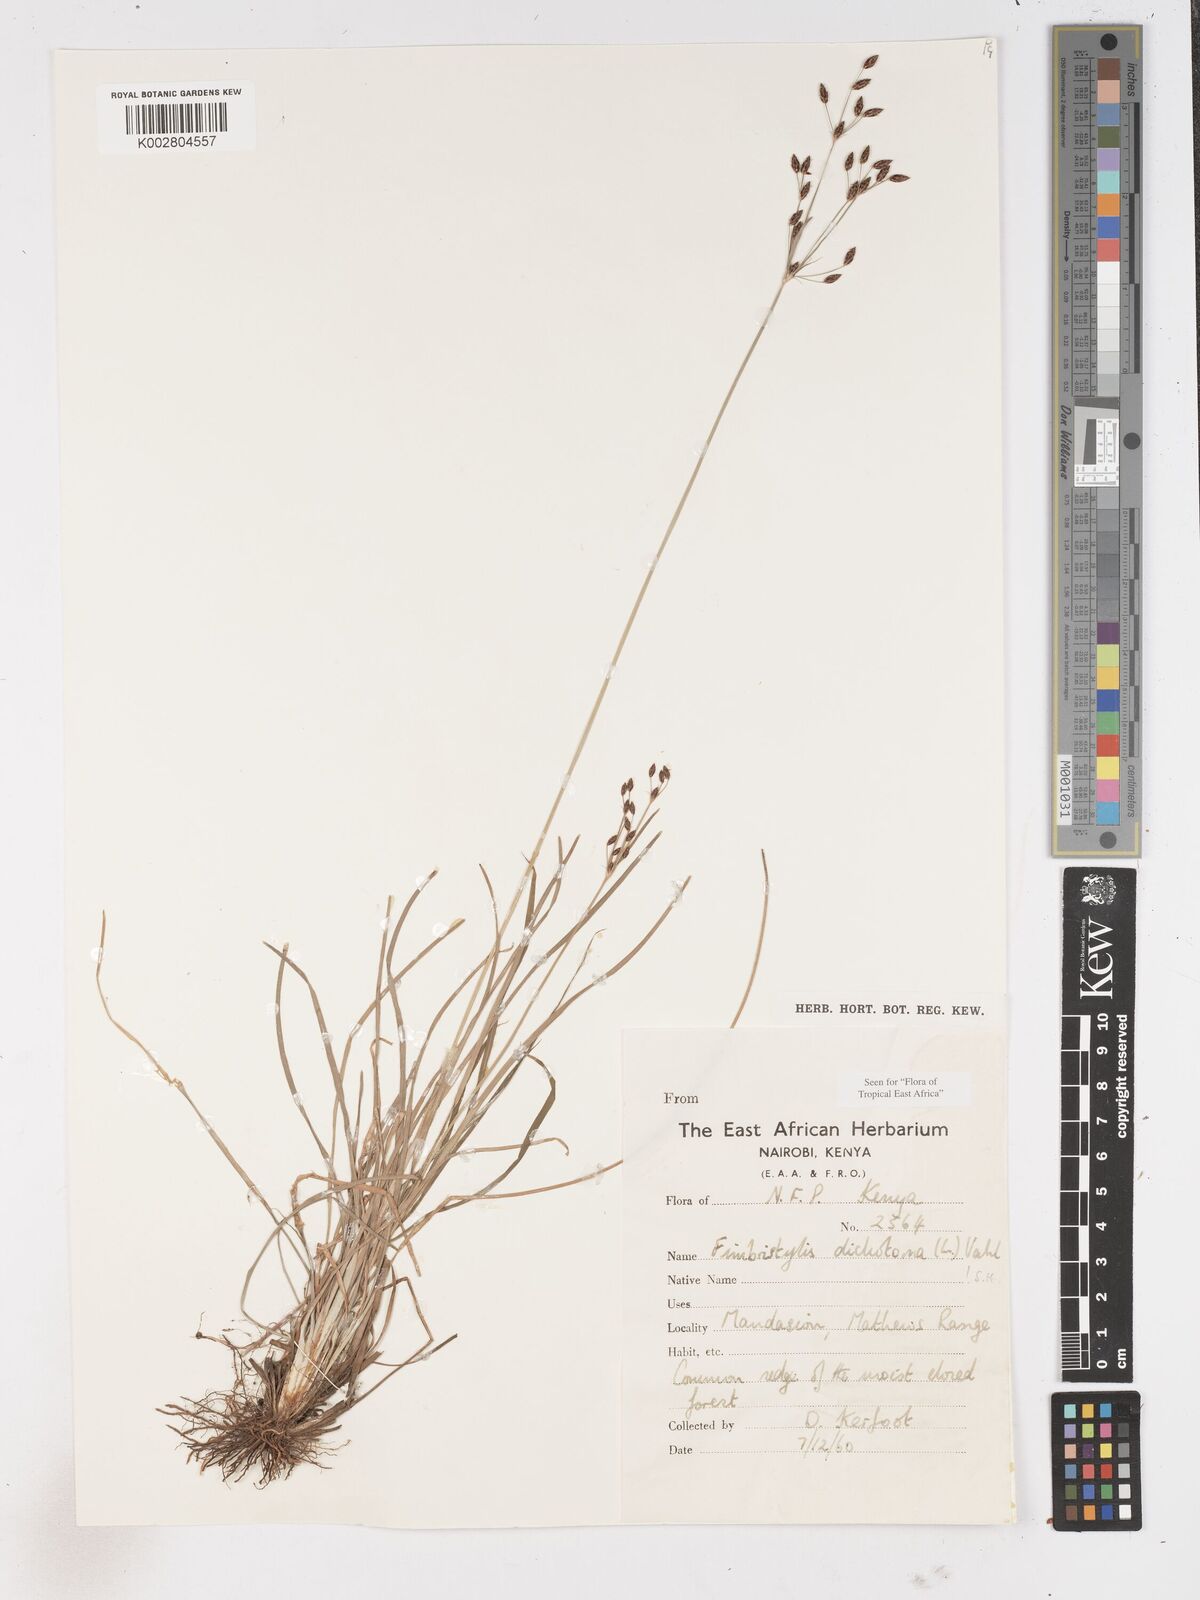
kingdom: Plantae
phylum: Tracheophyta
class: Liliopsida
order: Poales
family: Cyperaceae
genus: Fimbristylis
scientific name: Fimbristylis dichotoma
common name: Forked fimbry
